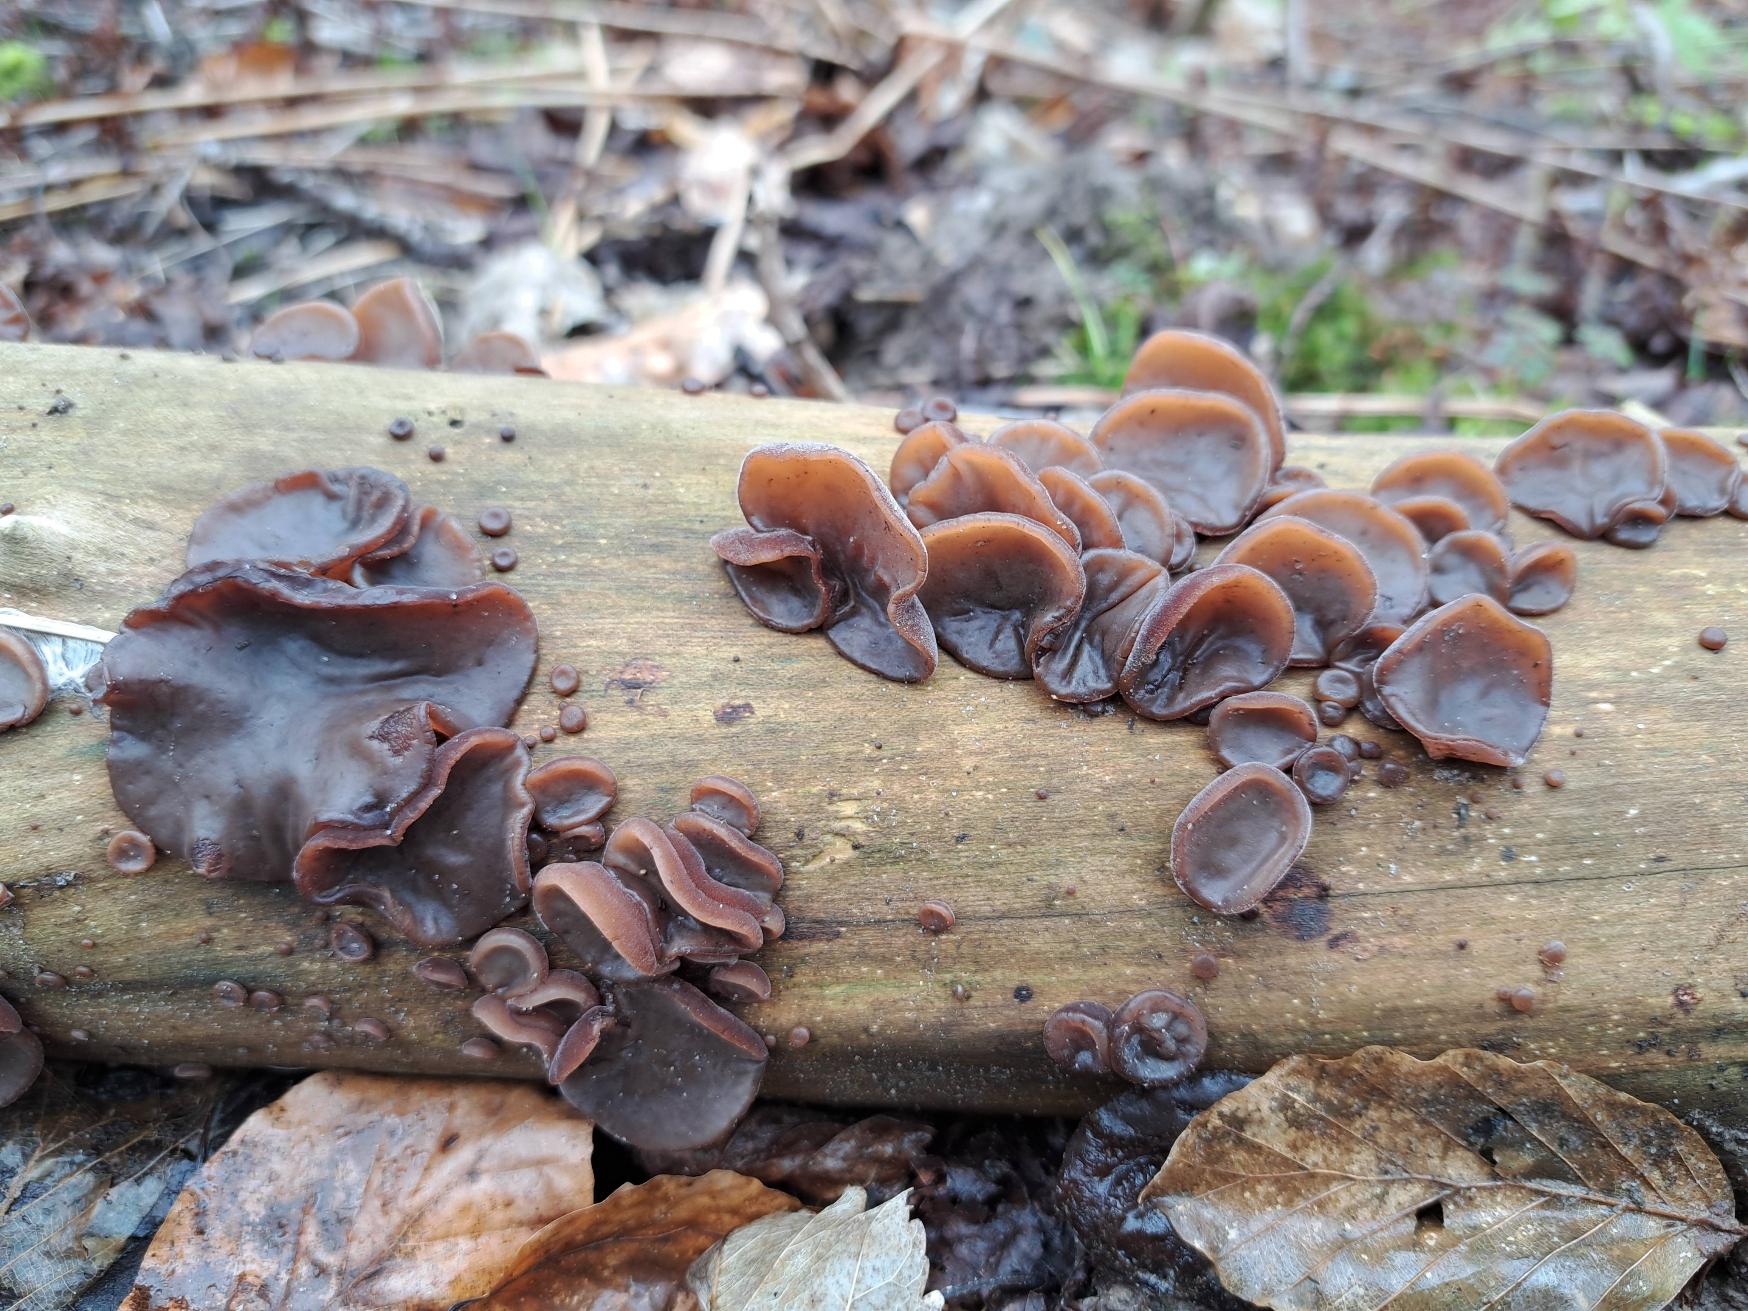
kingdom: Fungi
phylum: Basidiomycota
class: Agaricomycetes
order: Auriculariales
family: Auriculariaceae
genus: Auricularia
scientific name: Auricularia auricula-judae
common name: Almindelig judasøre
